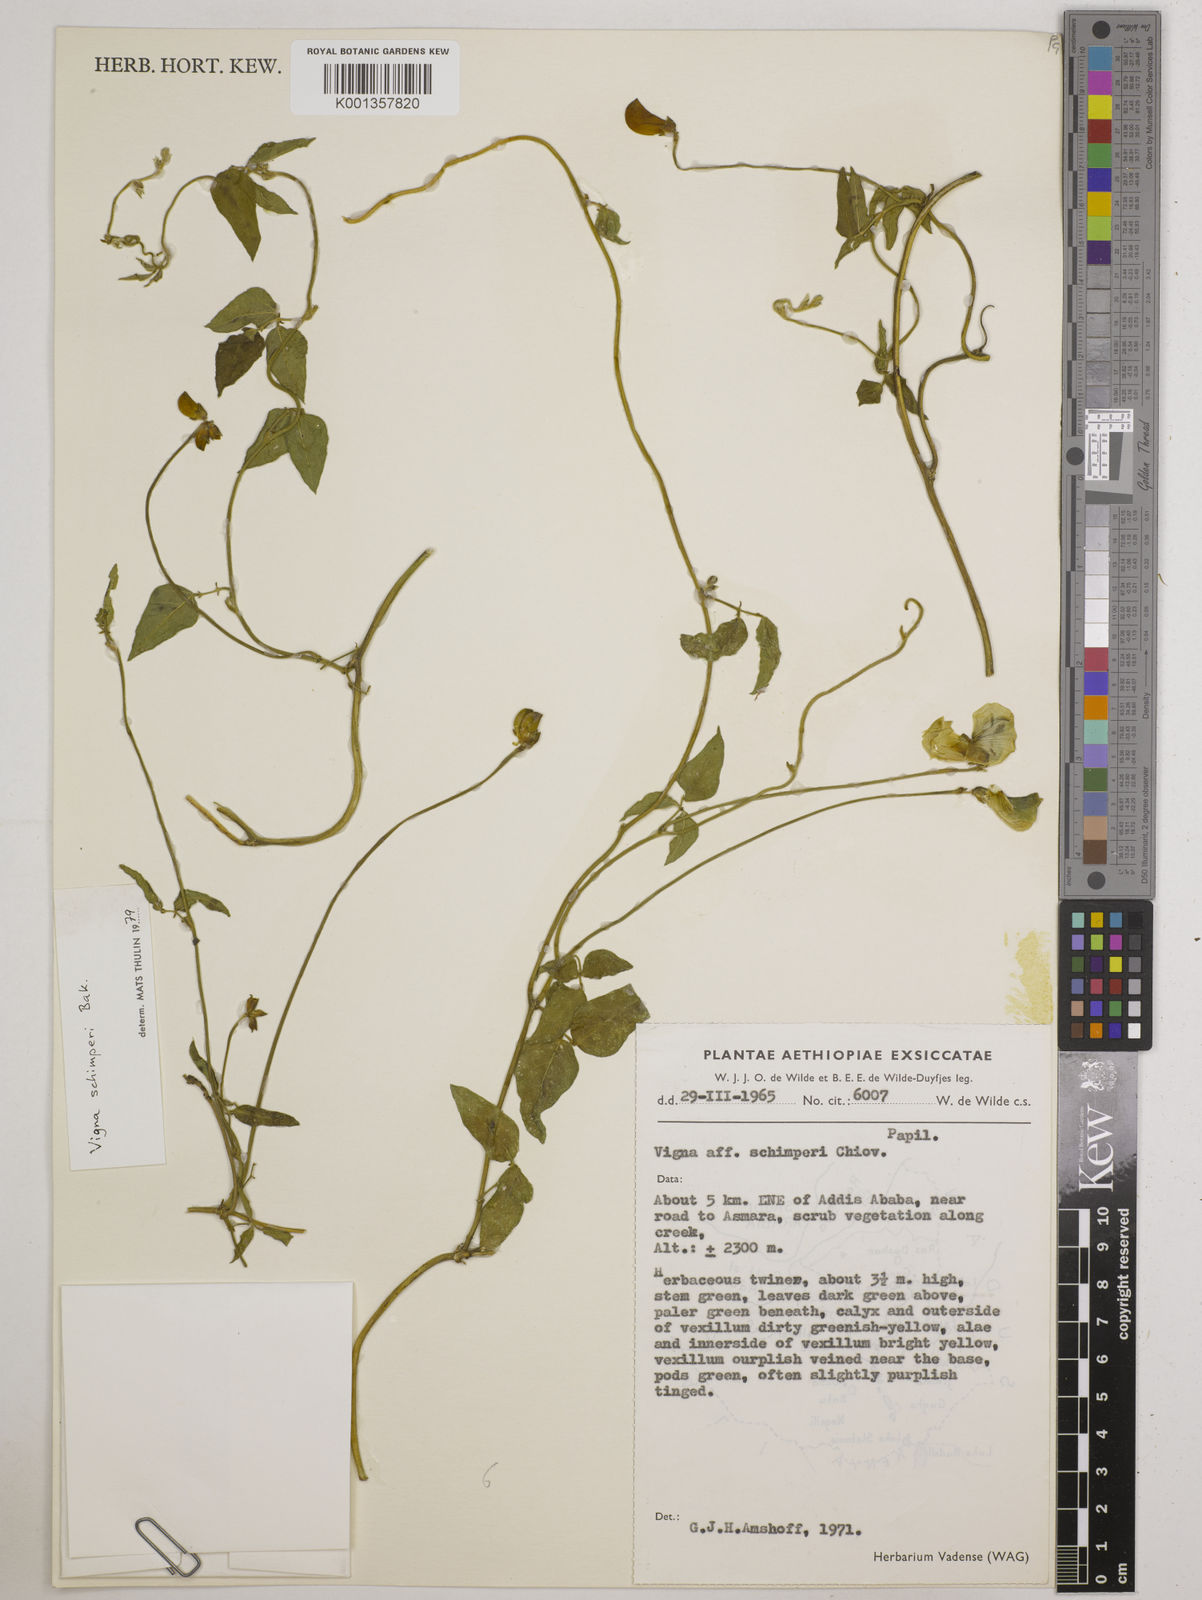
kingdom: Plantae
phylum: Tracheophyta
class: Magnoliopsida
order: Fabales
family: Fabaceae
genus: Vigna
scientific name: Vigna schimperi
